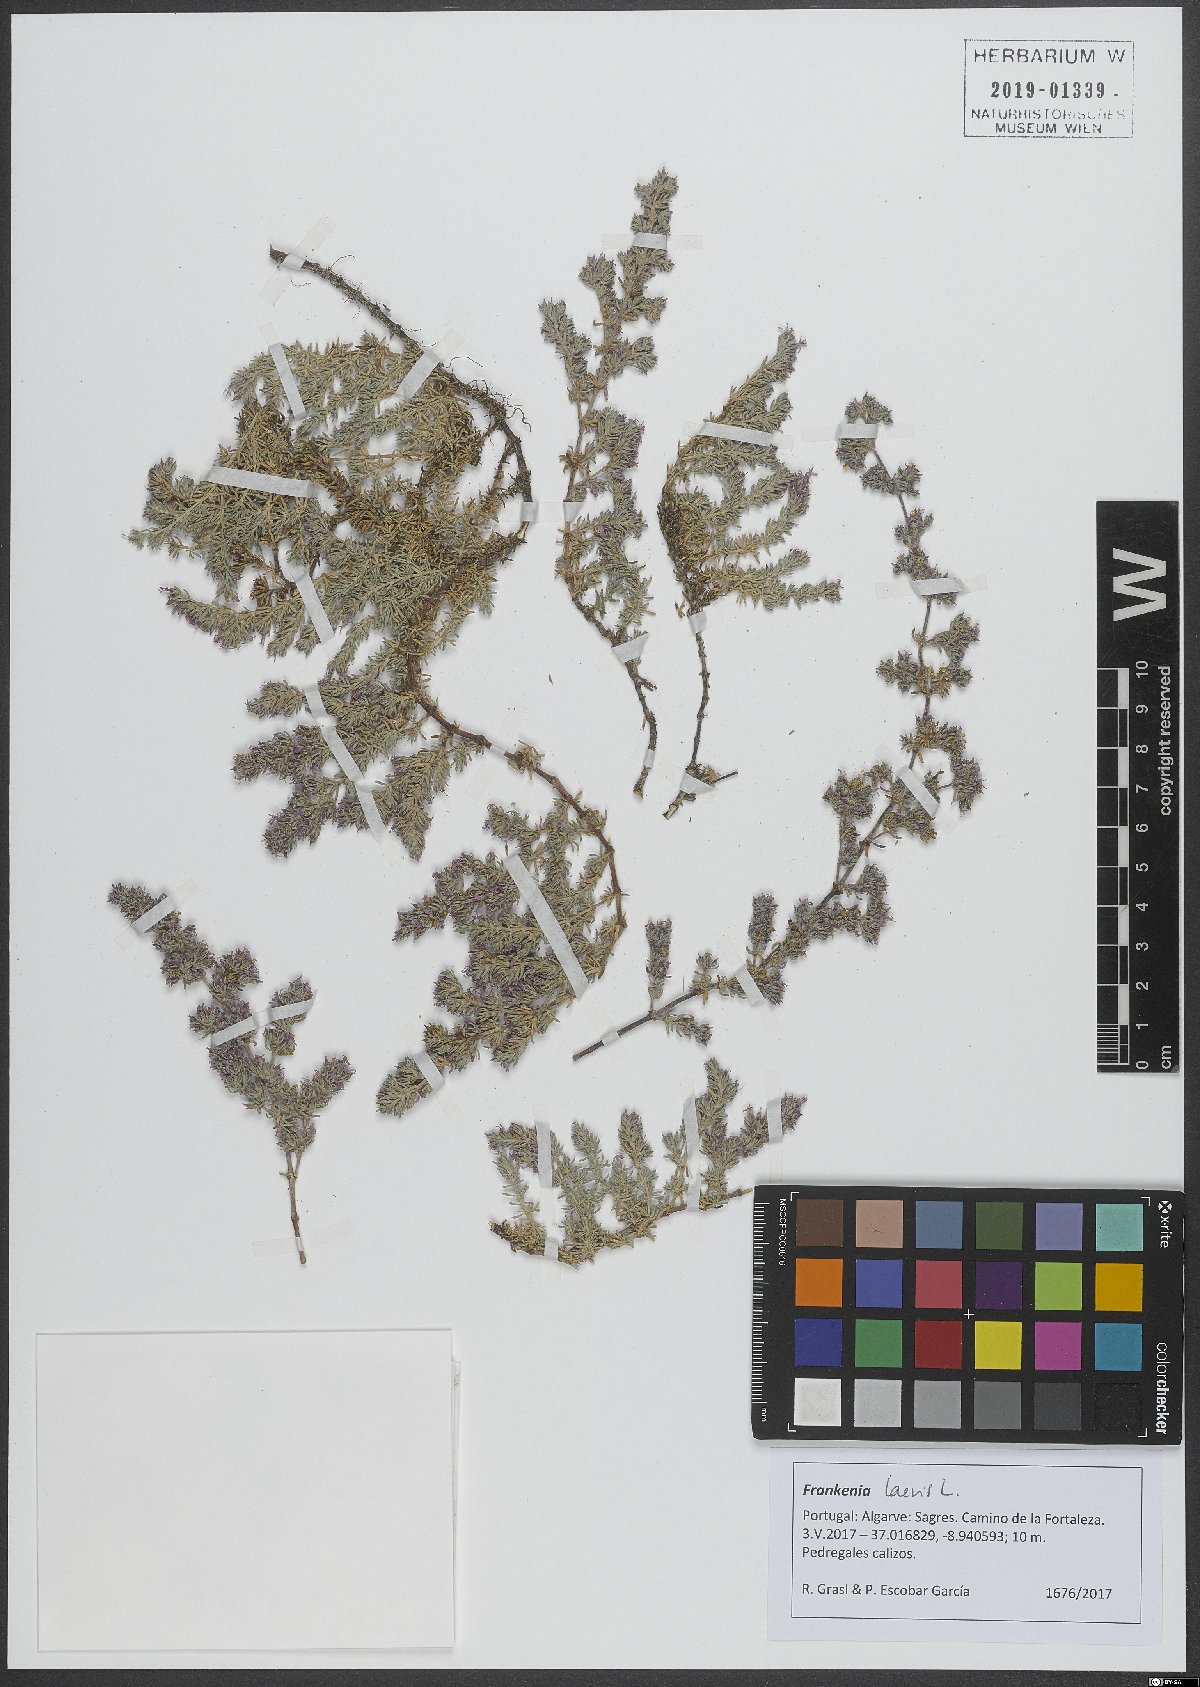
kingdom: Plantae
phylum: Tracheophyta
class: Magnoliopsida
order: Caryophyllales
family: Frankeniaceae
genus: Frankenia
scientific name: Frankenia laevis
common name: Sea-heath
